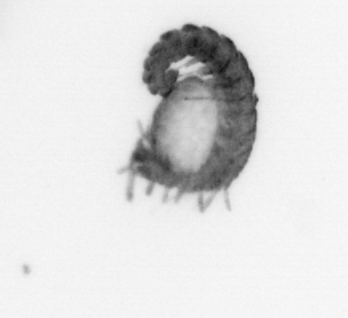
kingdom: Animalia
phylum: Annelida
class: Polychaeta
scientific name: Polychaeta
